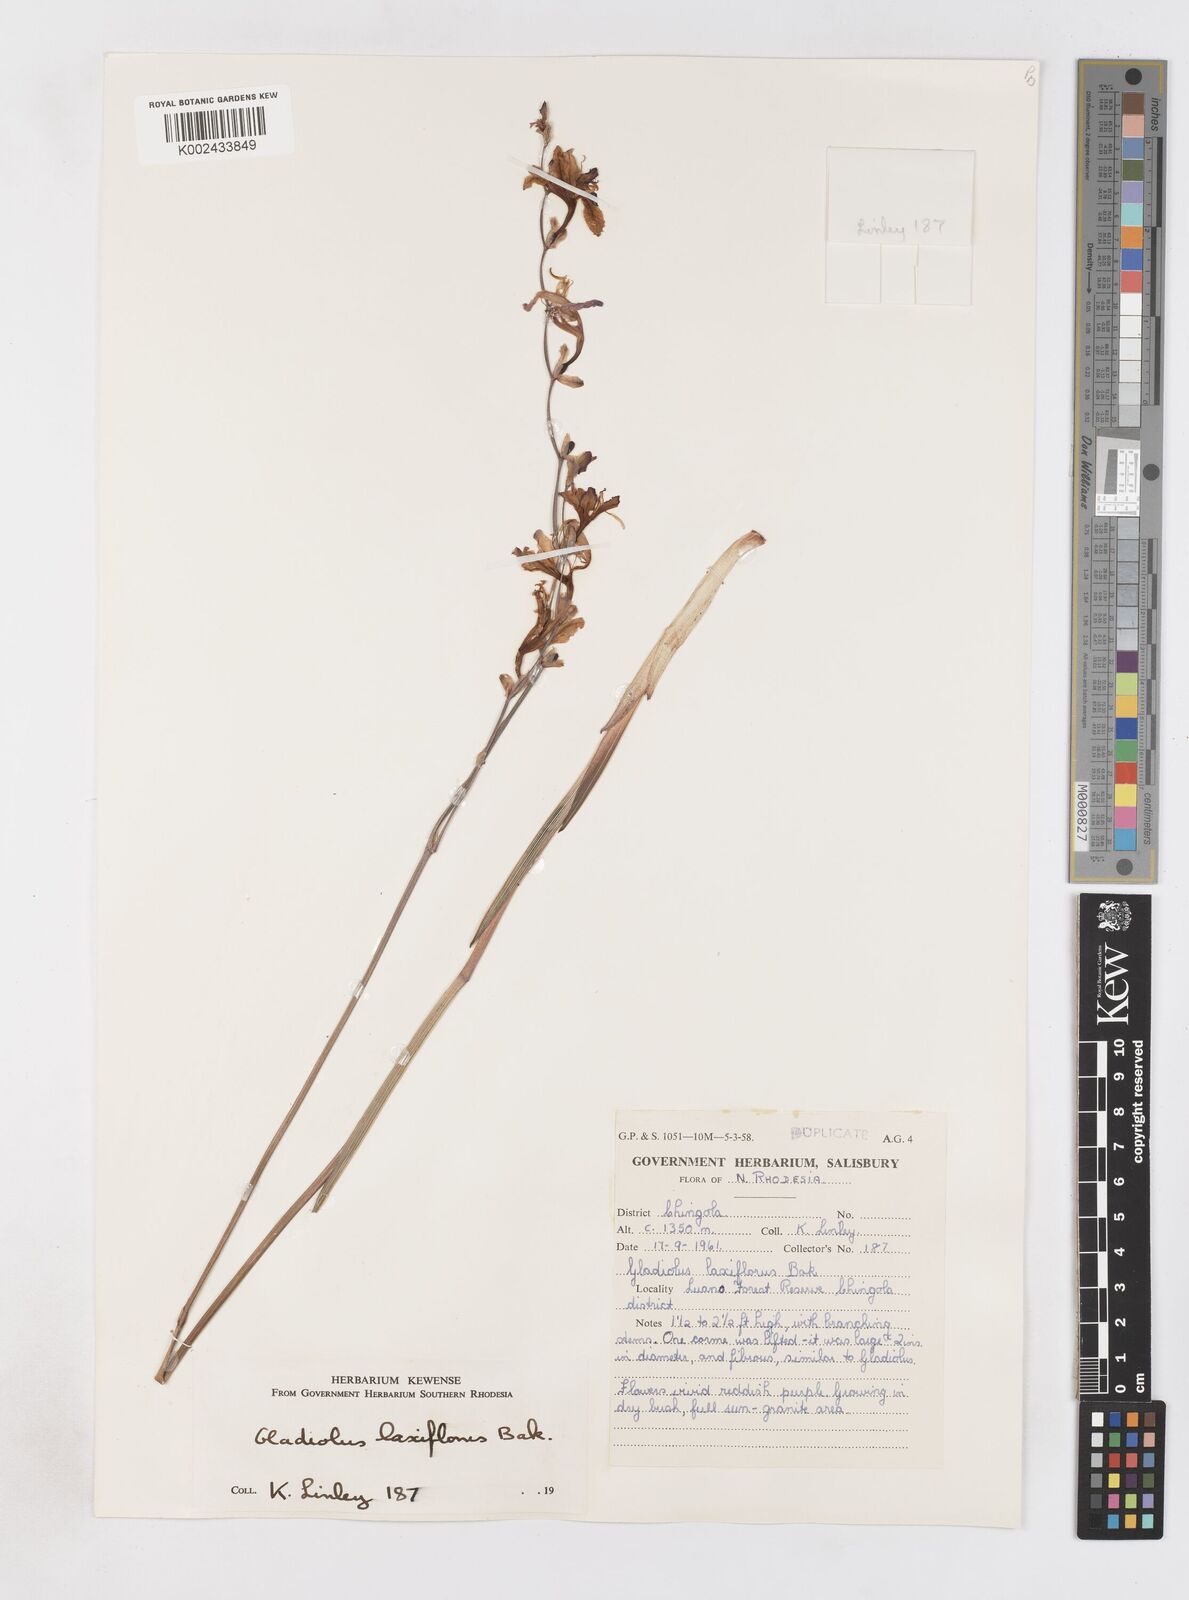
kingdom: Plantae
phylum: Tracheophyta
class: Liliopsida
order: Asparagales
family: Iridaceae
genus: Gladiolus
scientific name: Gladiolus laxiflorus
